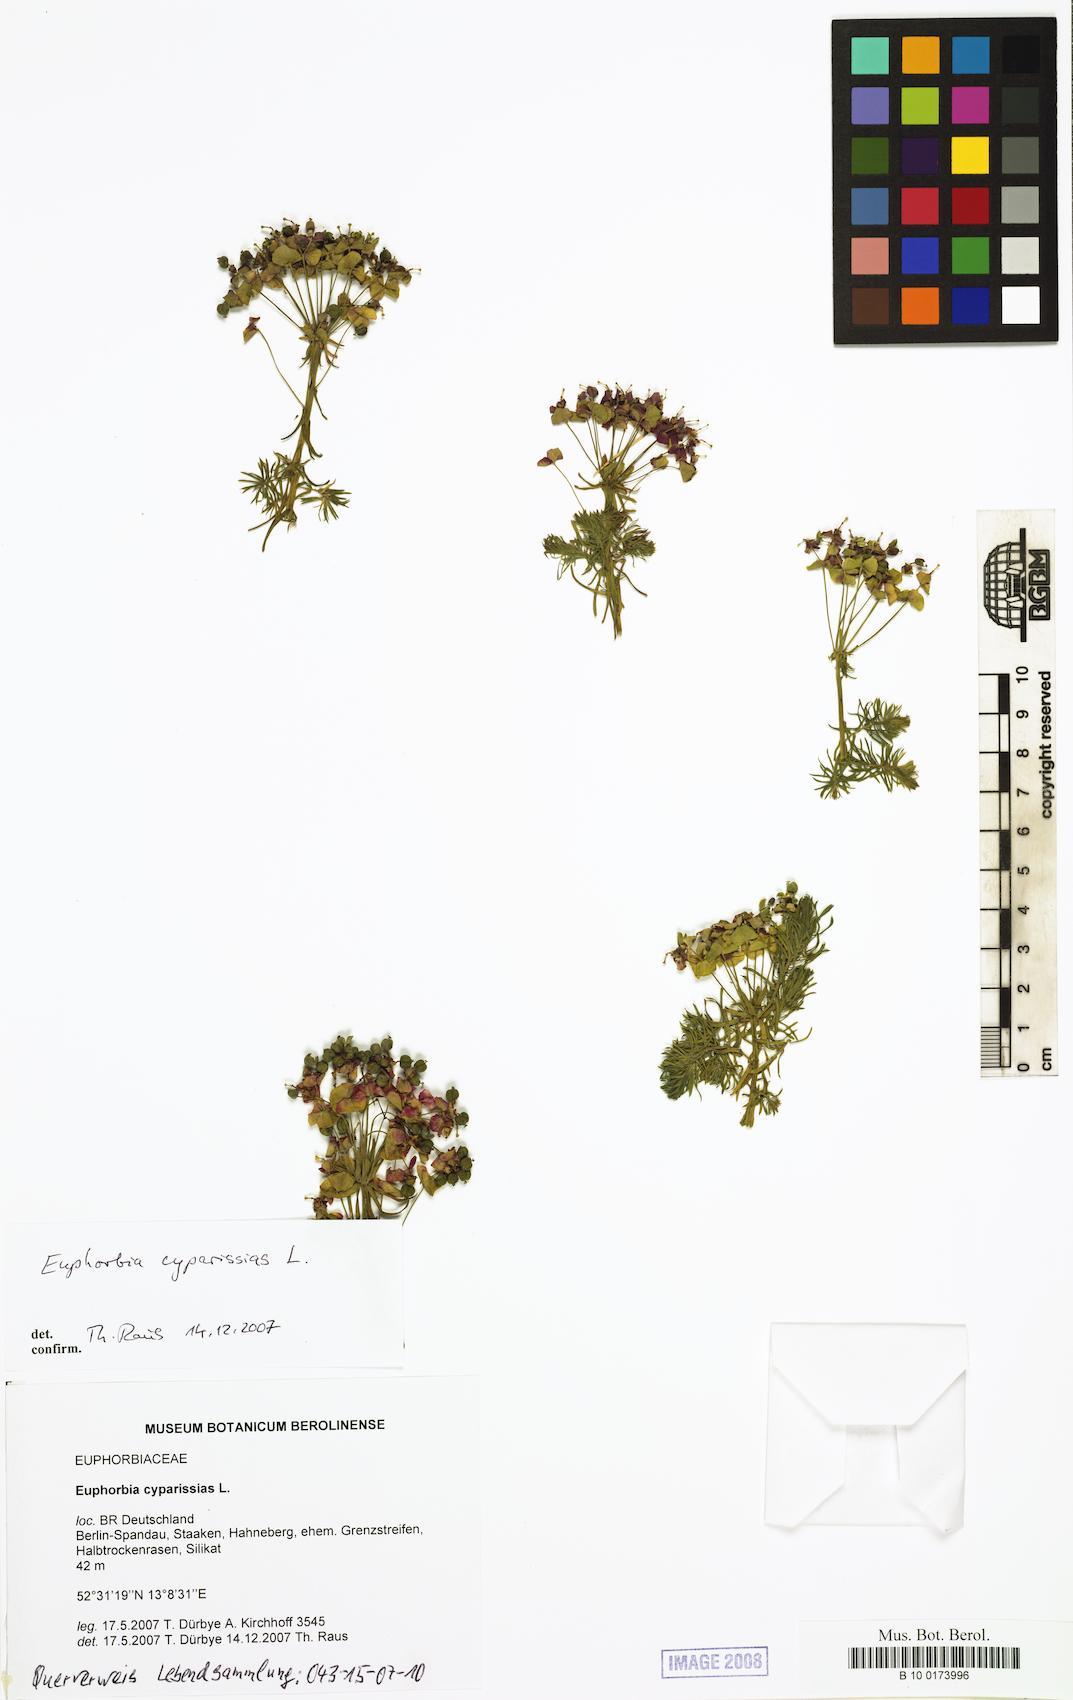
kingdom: Plantae
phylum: Tracheophyta
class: Magnoliopsida
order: Malpighiales
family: Euphorbiaceae
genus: Euphorbia
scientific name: Euphorbia cyparissias
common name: Cypress spurge
